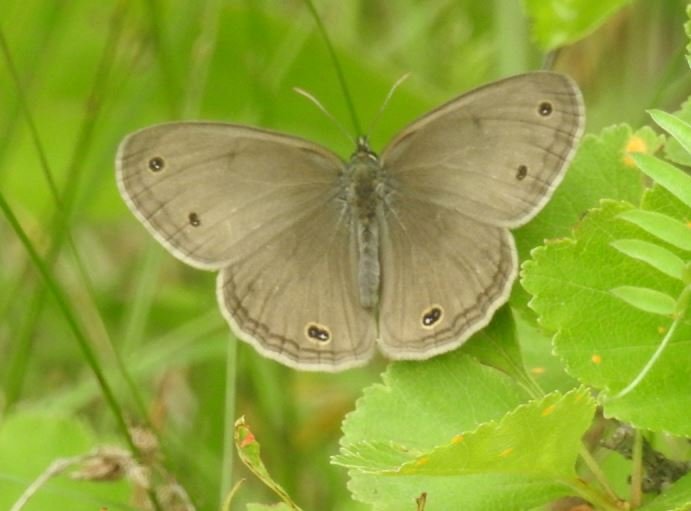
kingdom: Animalia
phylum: Arthropoda
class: Insecta
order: Lepidoptera
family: Nymphalidae
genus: Euptychia
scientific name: Euptychia cymela
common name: Little Wood Satyr
